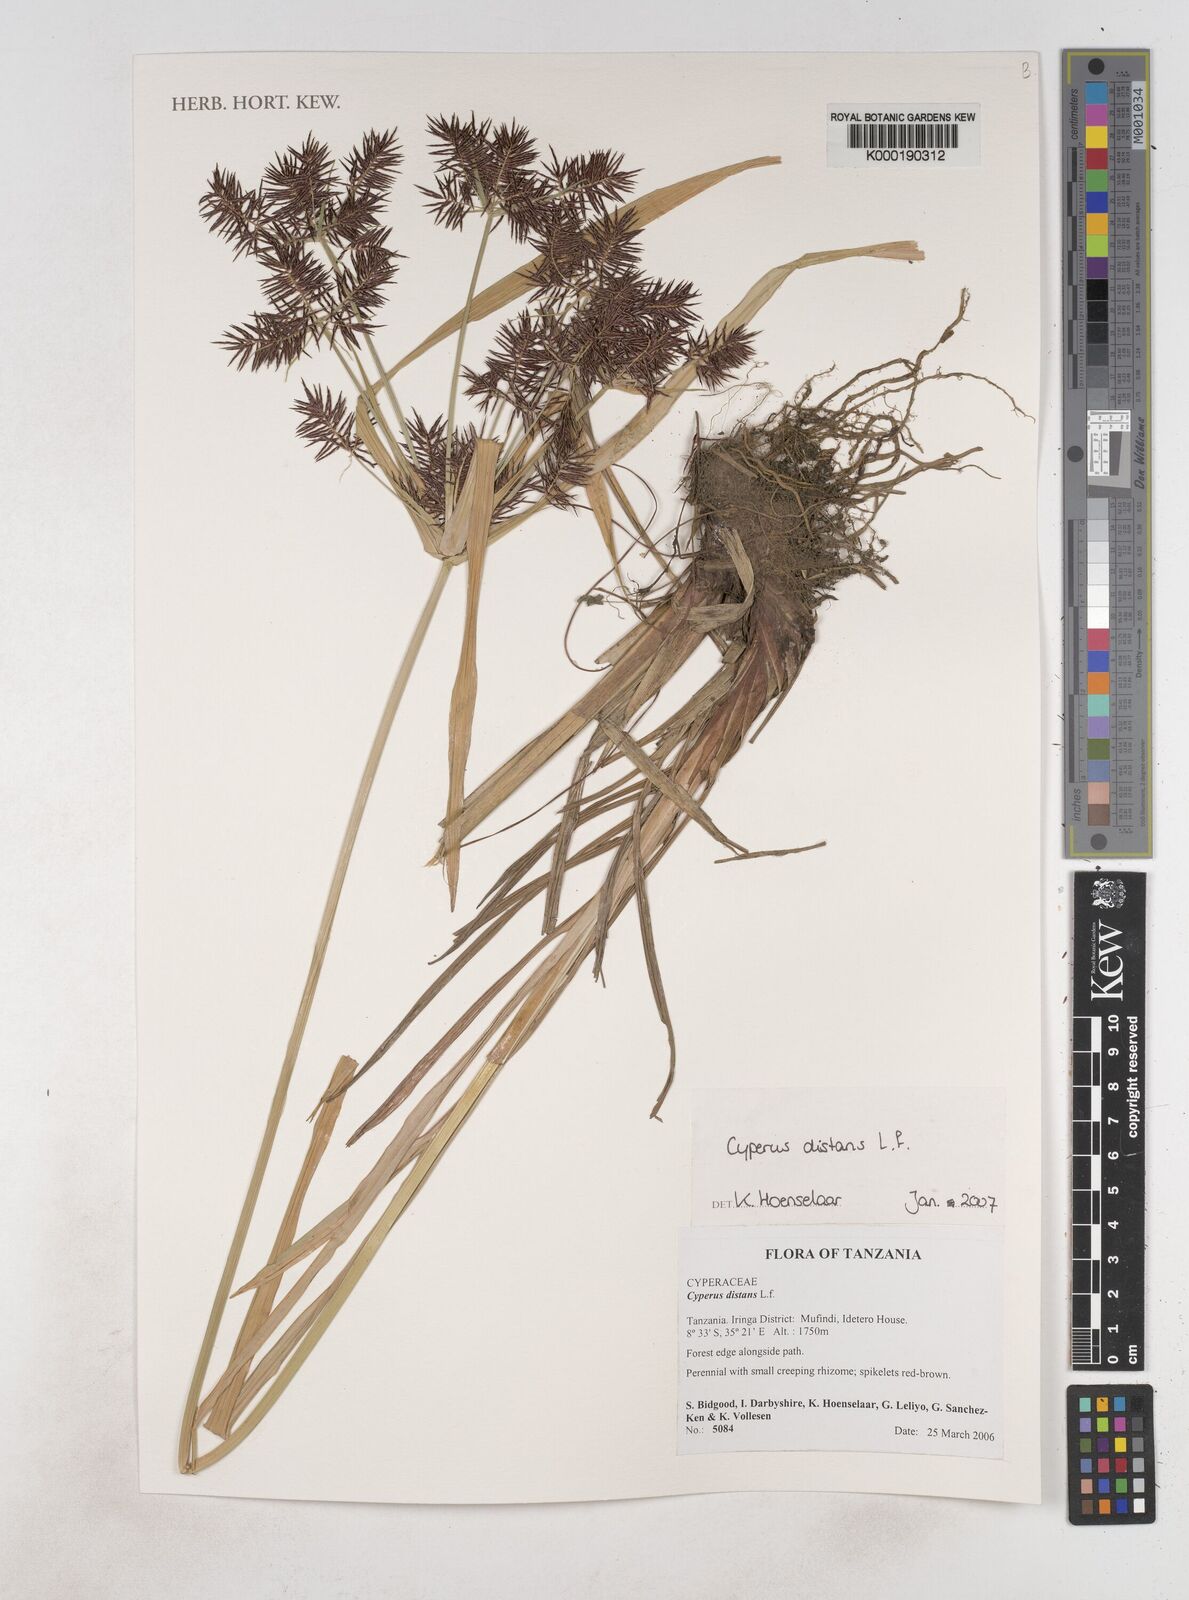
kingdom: Plantae
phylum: Tracheophyta
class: Liliopsida
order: Poales
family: Cyperaceae
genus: Cyperus
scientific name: Cyperus distans
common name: Slender cyperus
